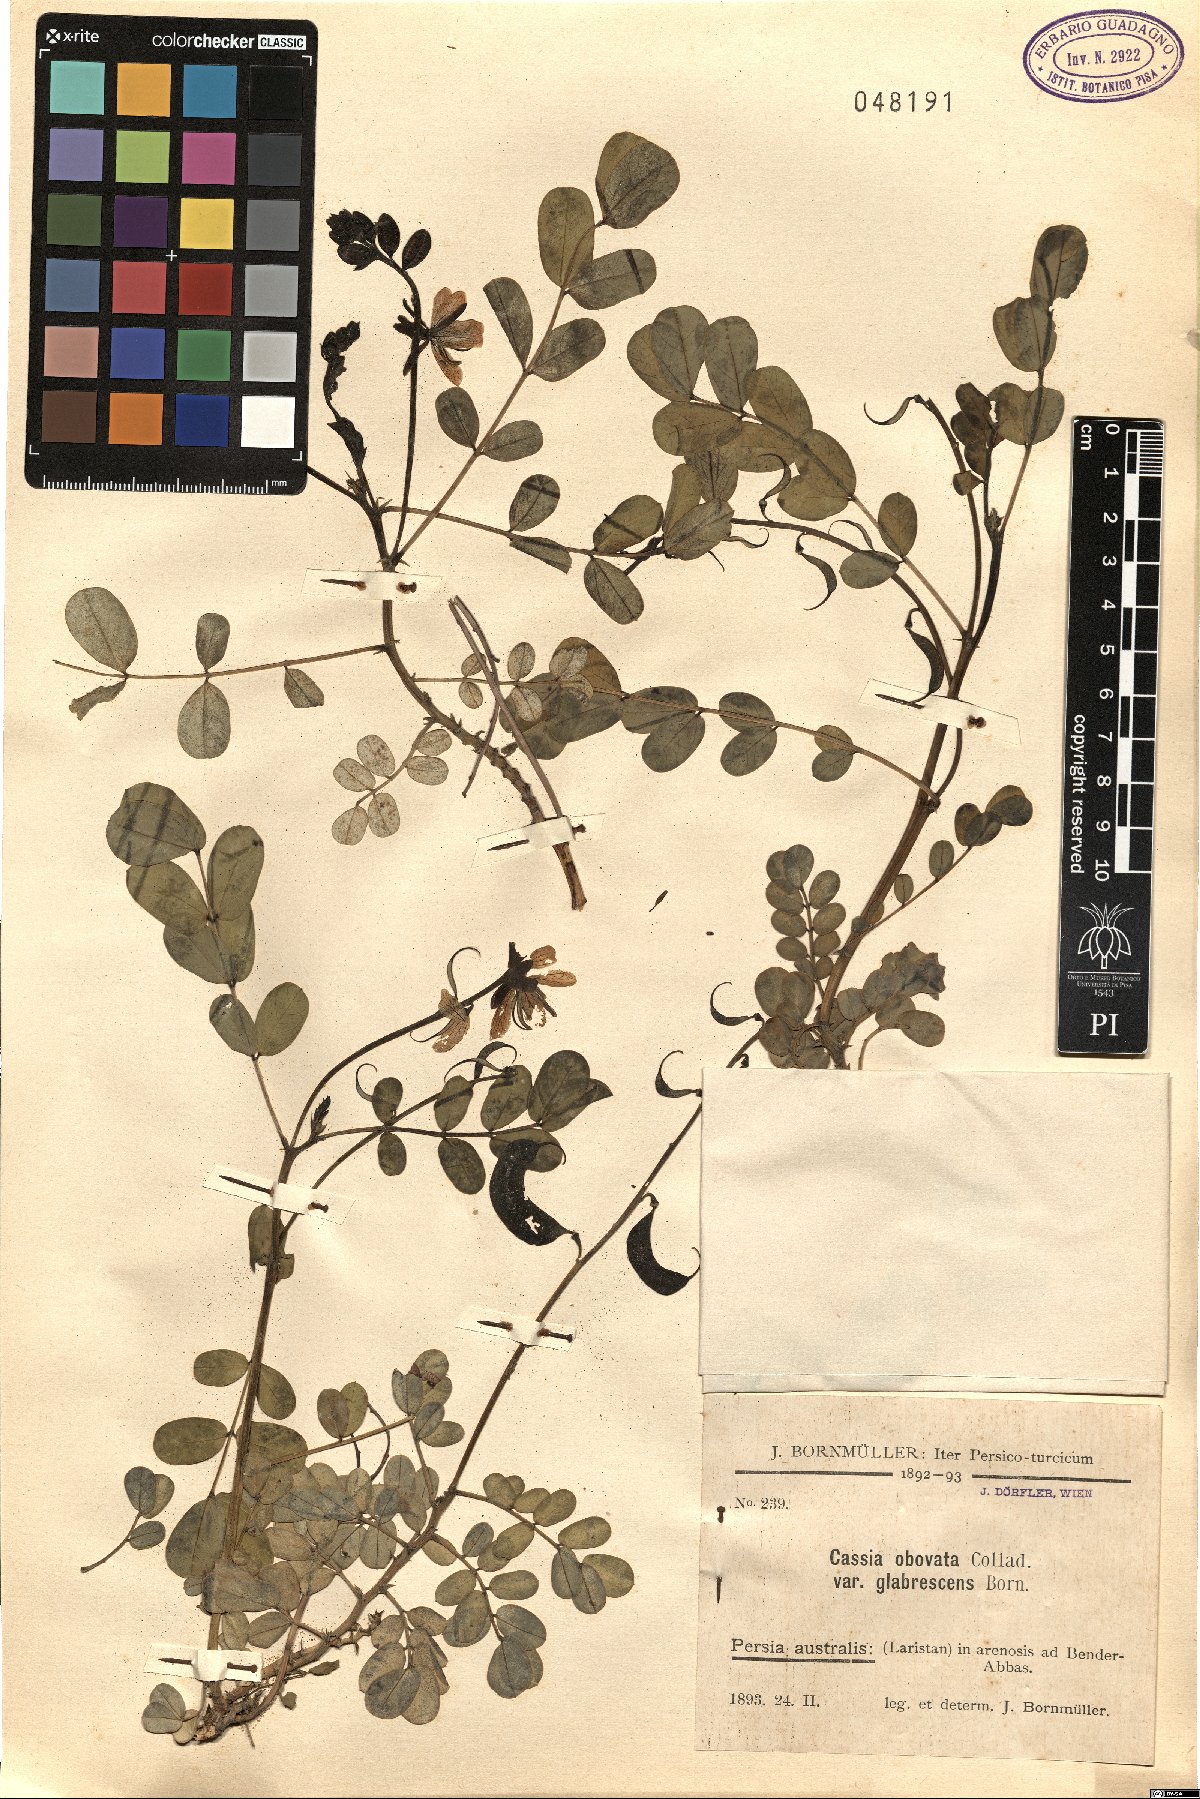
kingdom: Plantae
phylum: Tracheophyta
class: Magnoliopsida
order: Fabales
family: Fabaceae
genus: Senna
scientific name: Senna italica
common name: Port royal senna
